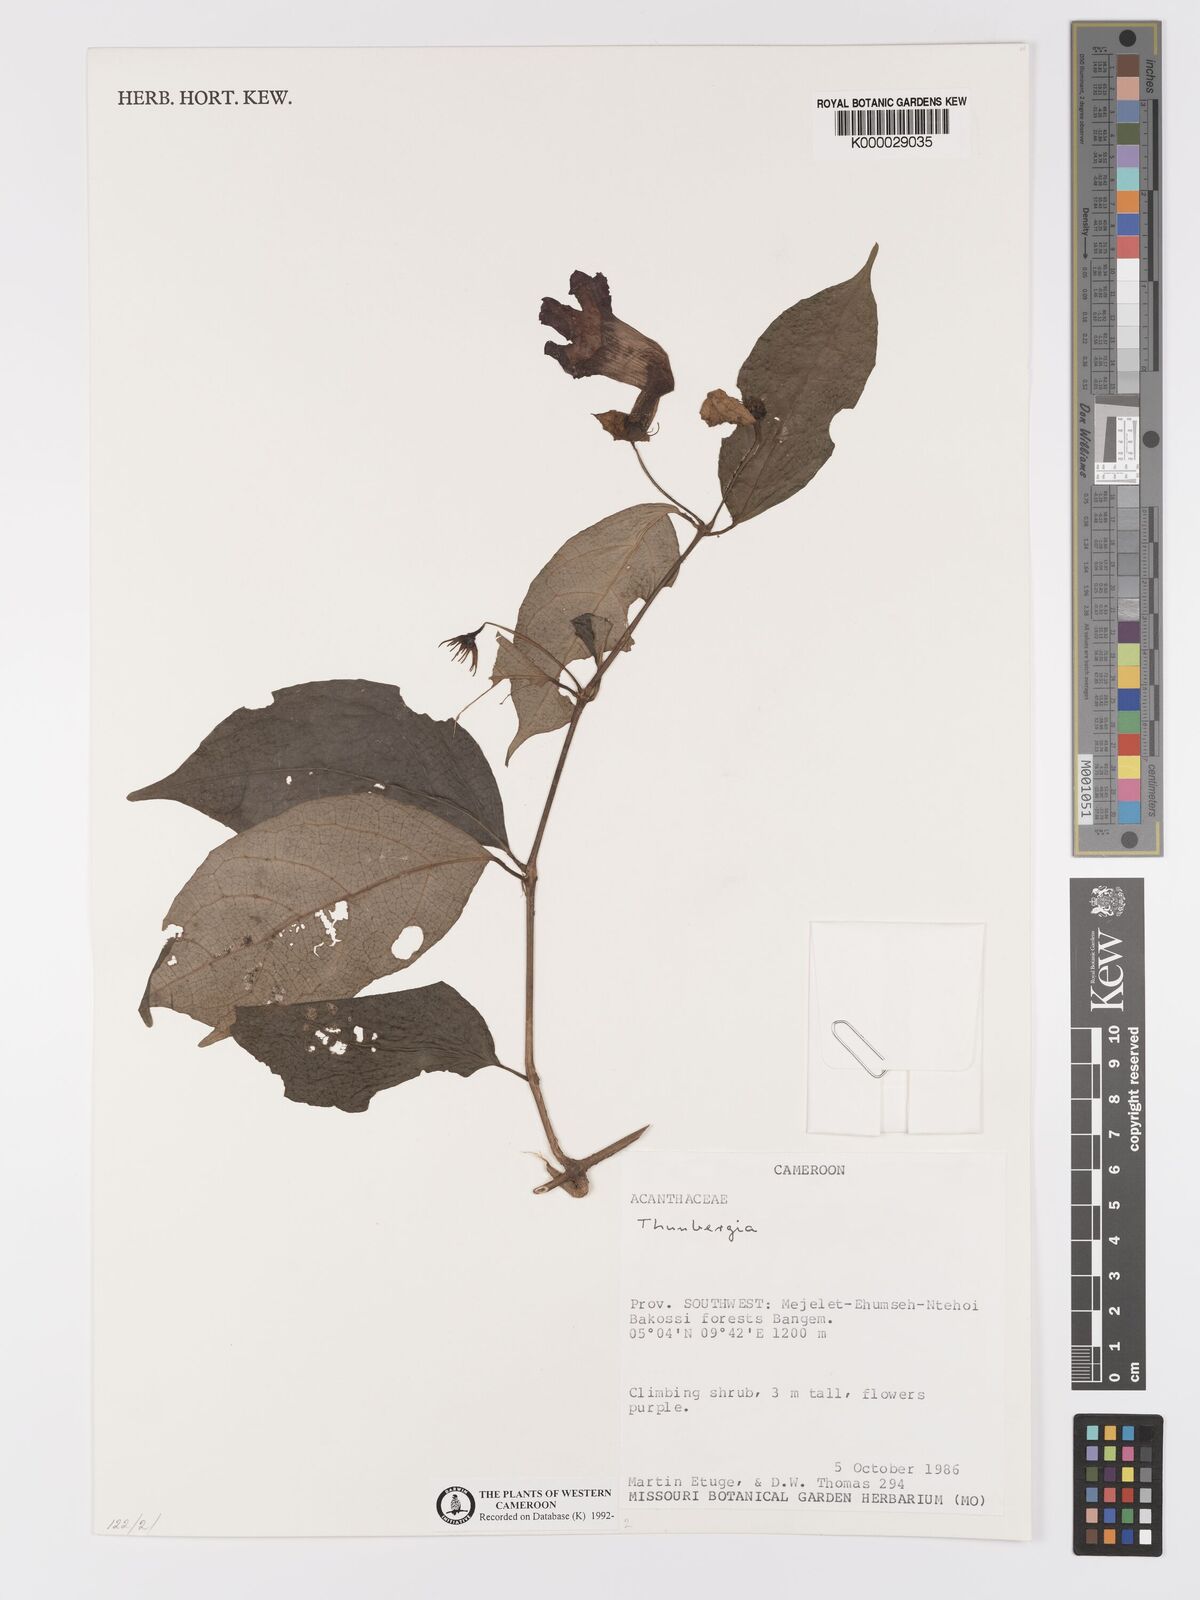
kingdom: Plantae
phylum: Tracheophyta
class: Magnoliopsida
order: Lamiales
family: Acanthaceae
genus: Thunbergia
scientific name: Thunbergia
